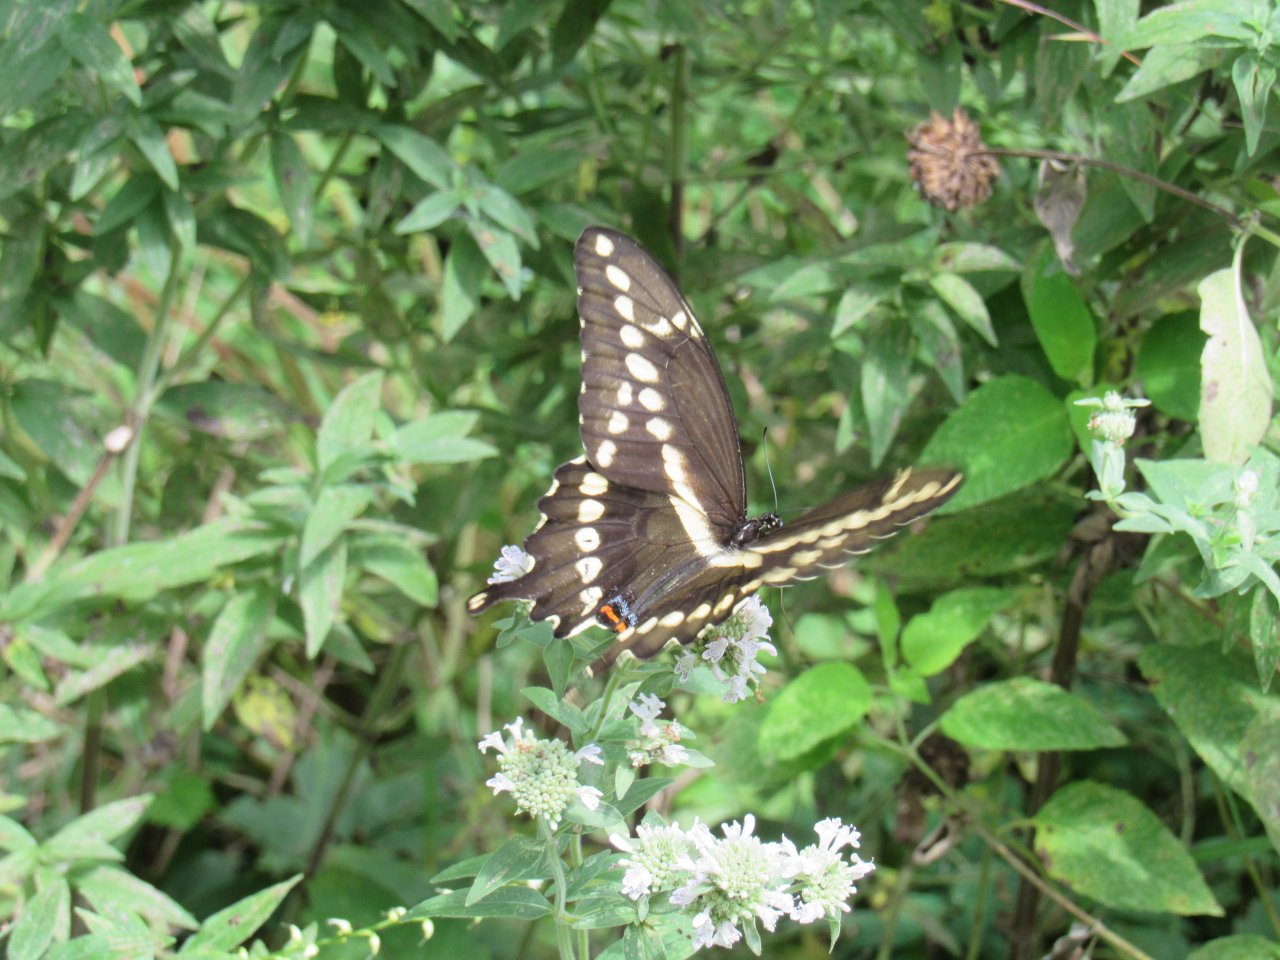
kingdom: Animalia
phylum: Arthropoda
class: Insecta
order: Lepidoptera
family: Papilionidae
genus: Papilio
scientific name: Papilio cresphontes
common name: Eastern Giant Swallowtail
